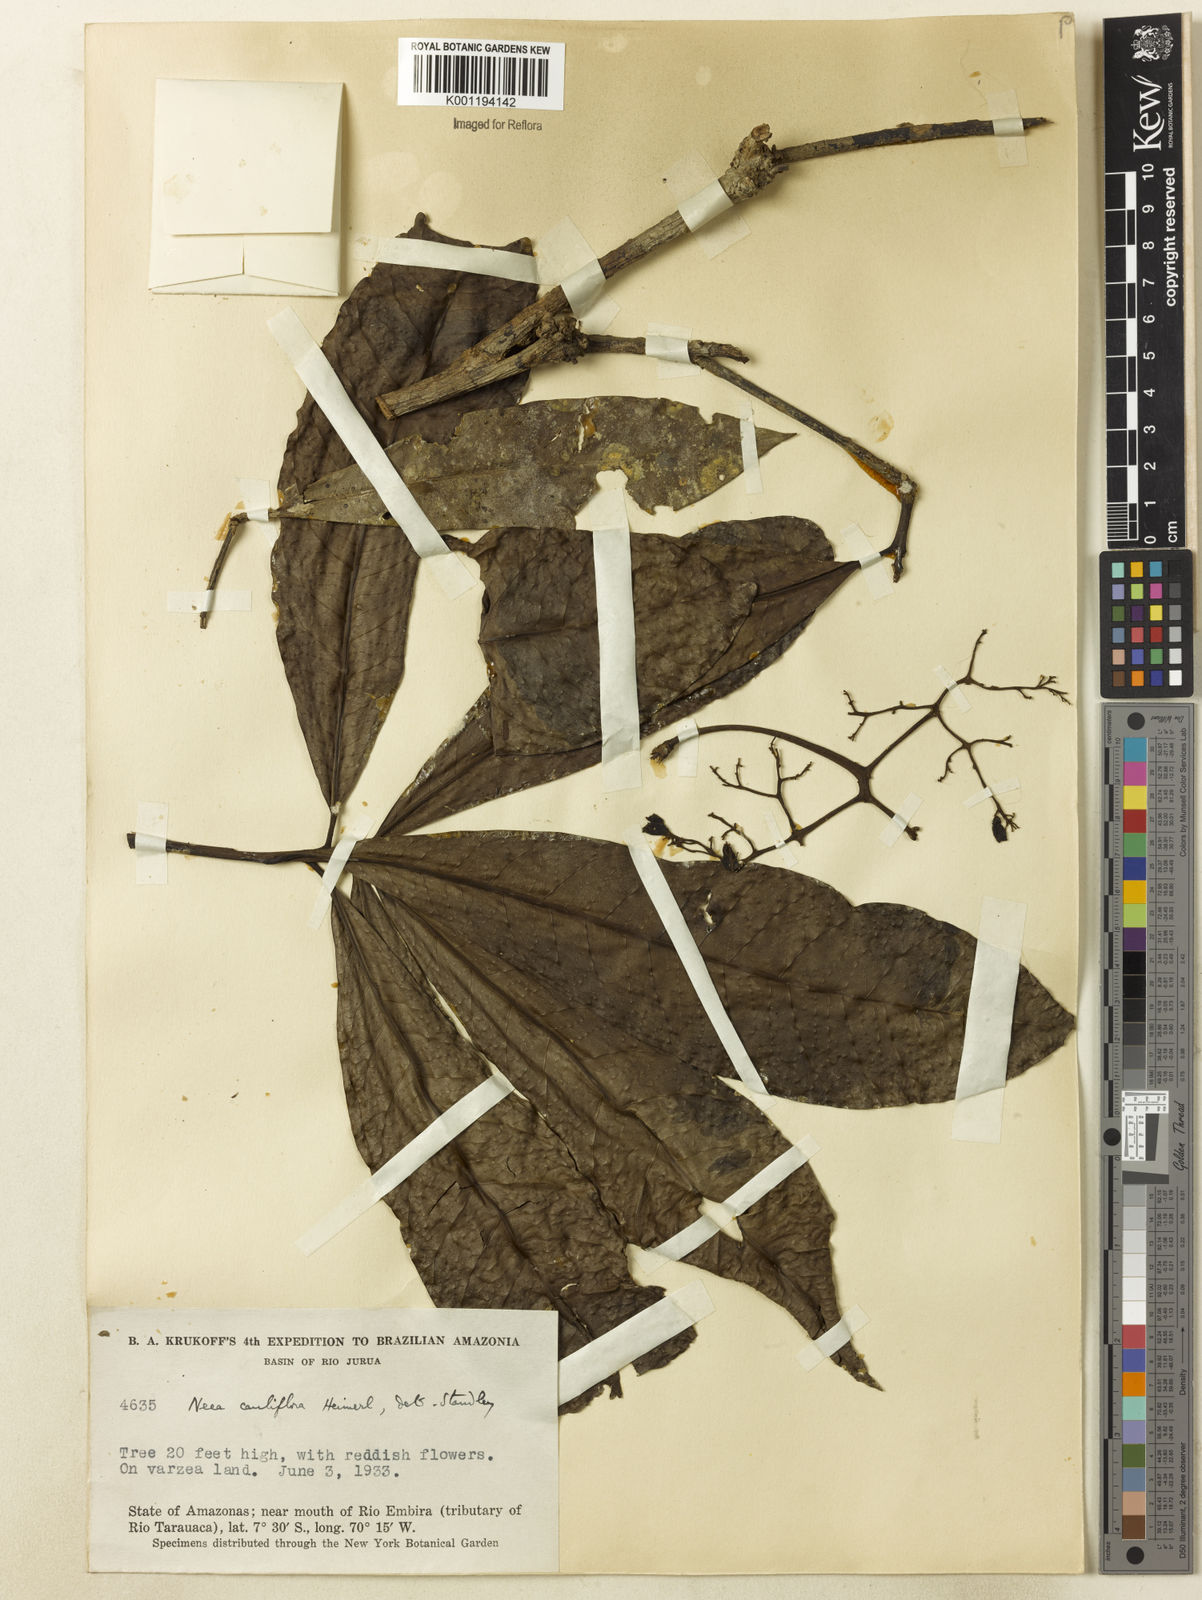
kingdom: Plantae
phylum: Tracheophyta
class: Magnoliopsida
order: Caryophyllales
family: Nyctaginaceae
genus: Neea
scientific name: Neea floribunda
